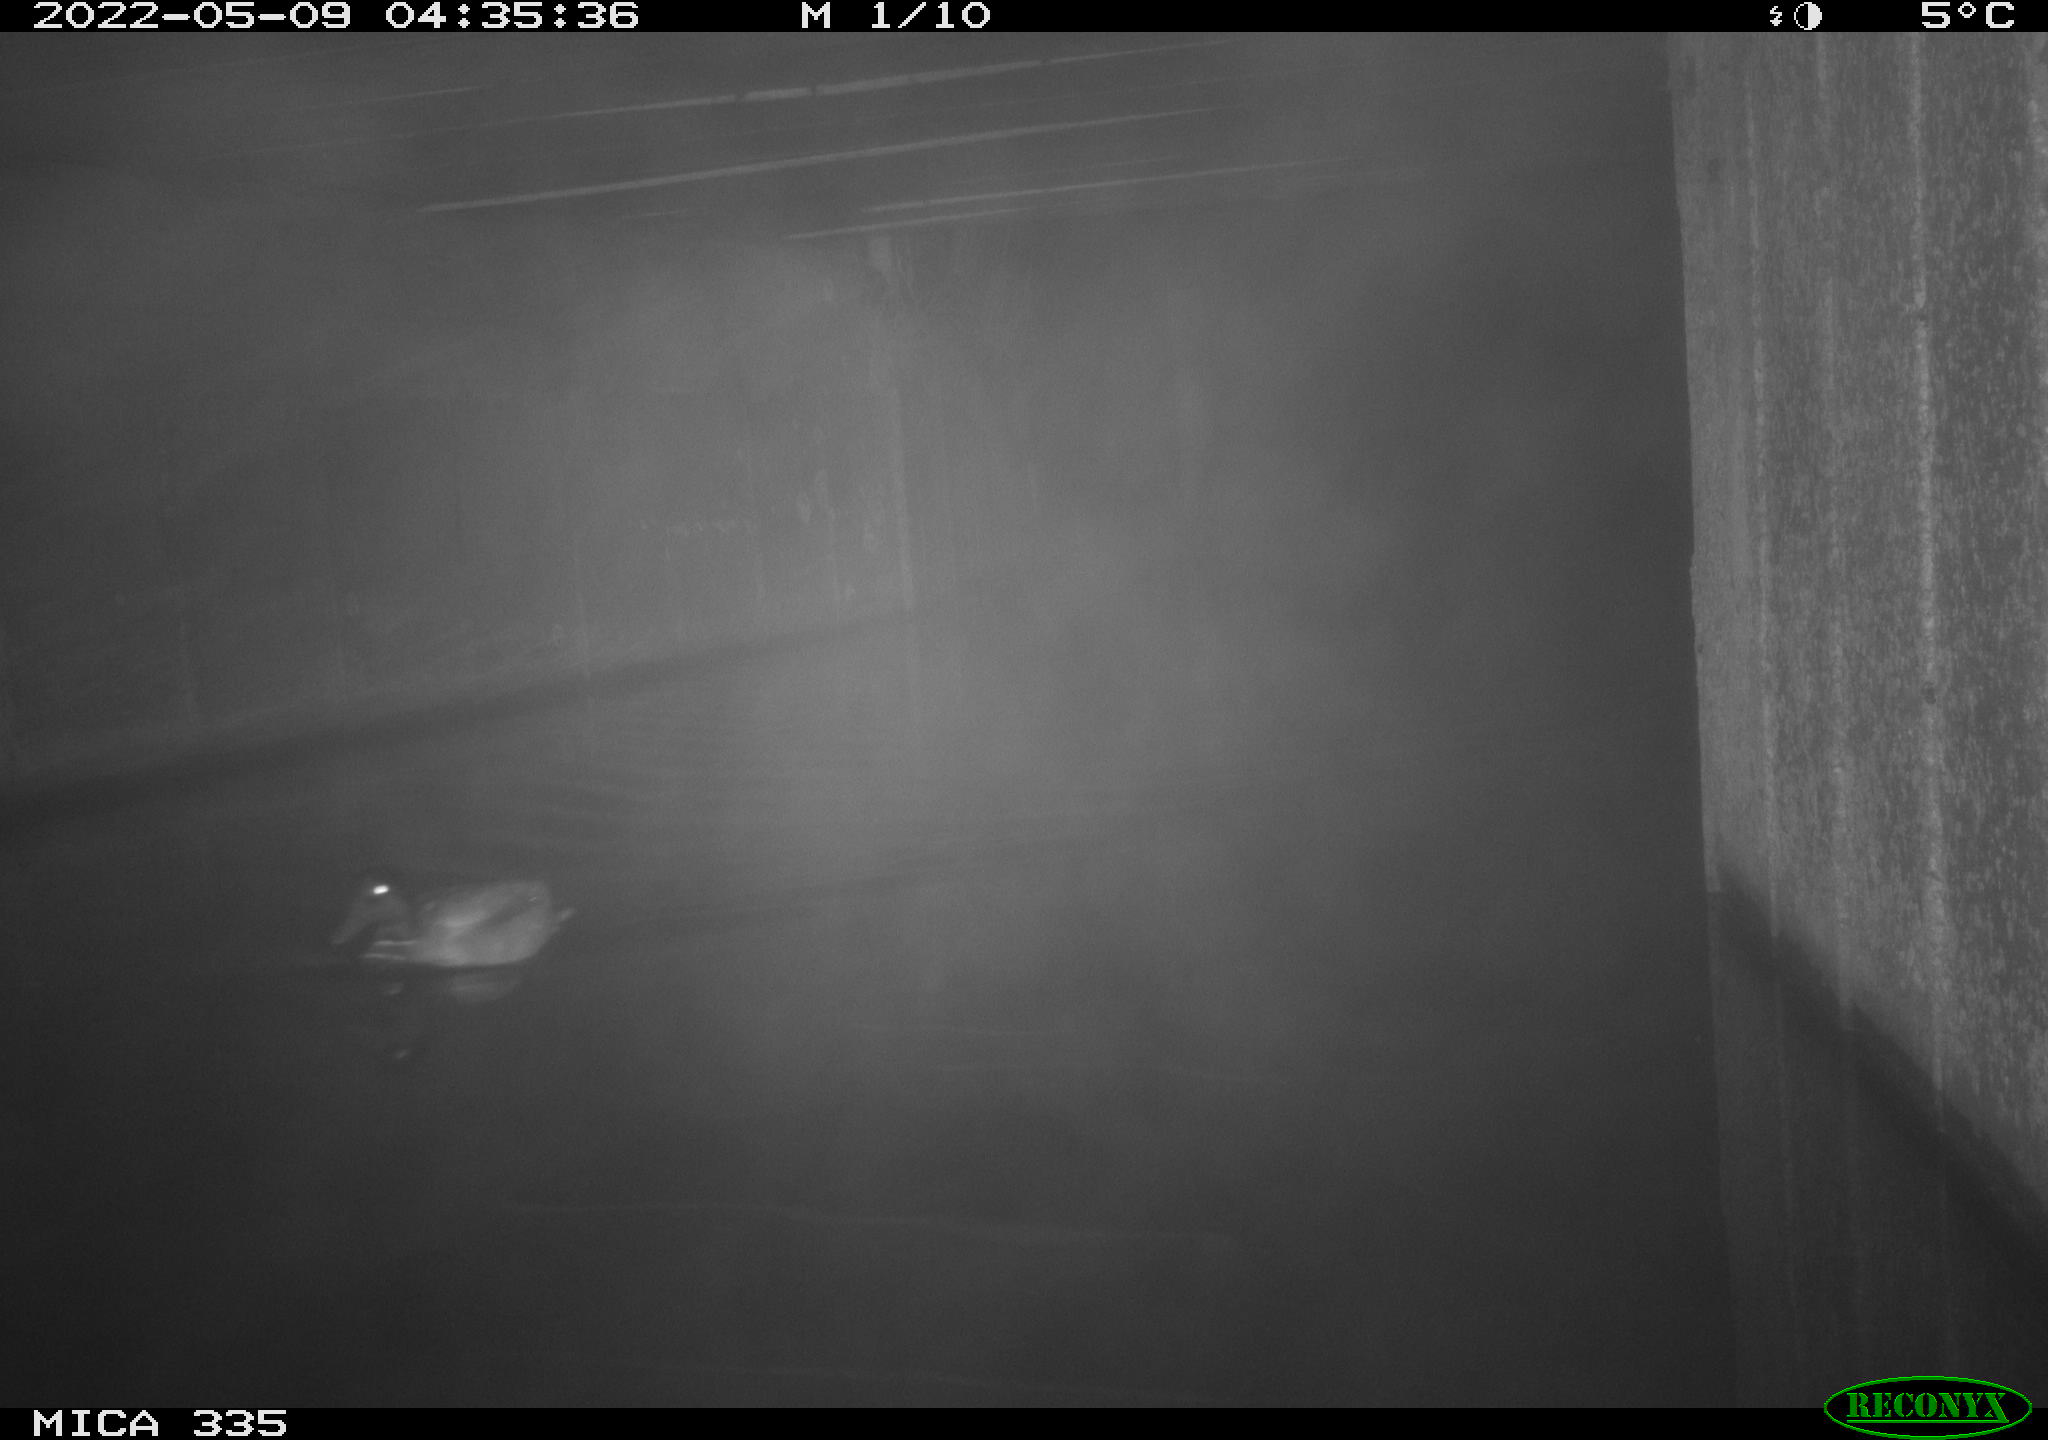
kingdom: Animalia
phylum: Chordata
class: Aves
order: Anseriformes
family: Anatidae
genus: Anas
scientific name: Anas platyrhynchos
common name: Mallard
